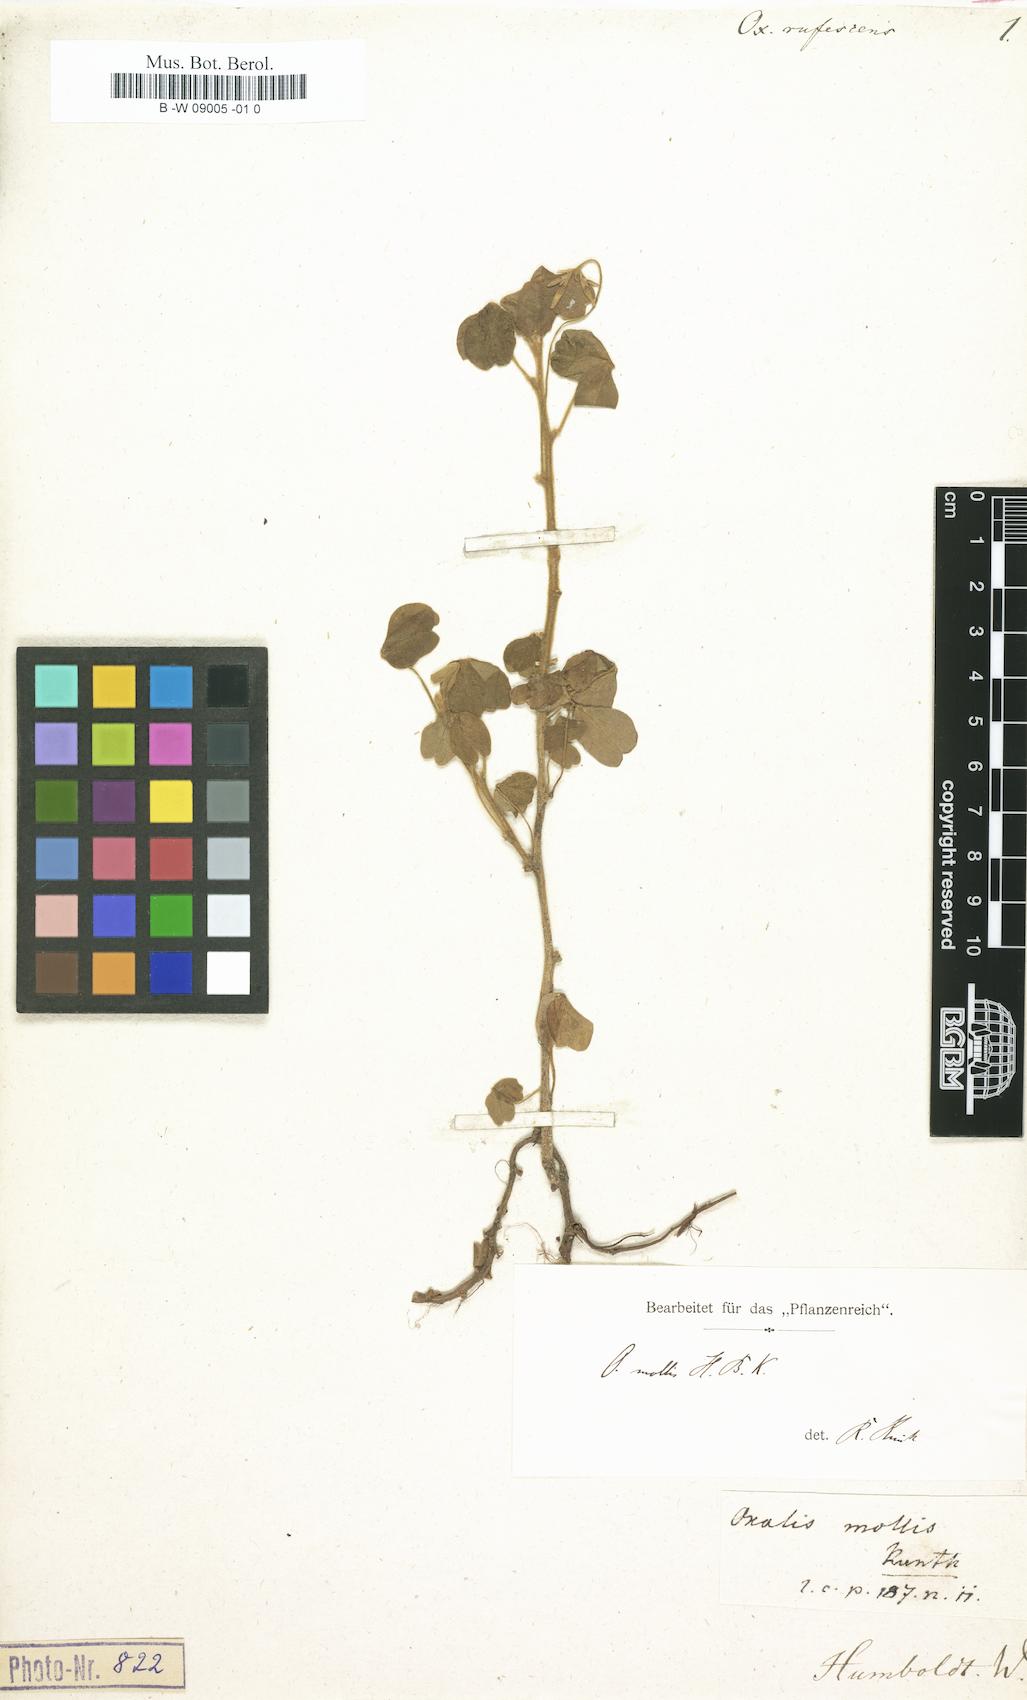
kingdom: Plantae
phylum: Tracheophyta
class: Magnoliopsida
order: Oxalidales
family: Oxalidaceae
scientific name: Oxalidaceae
